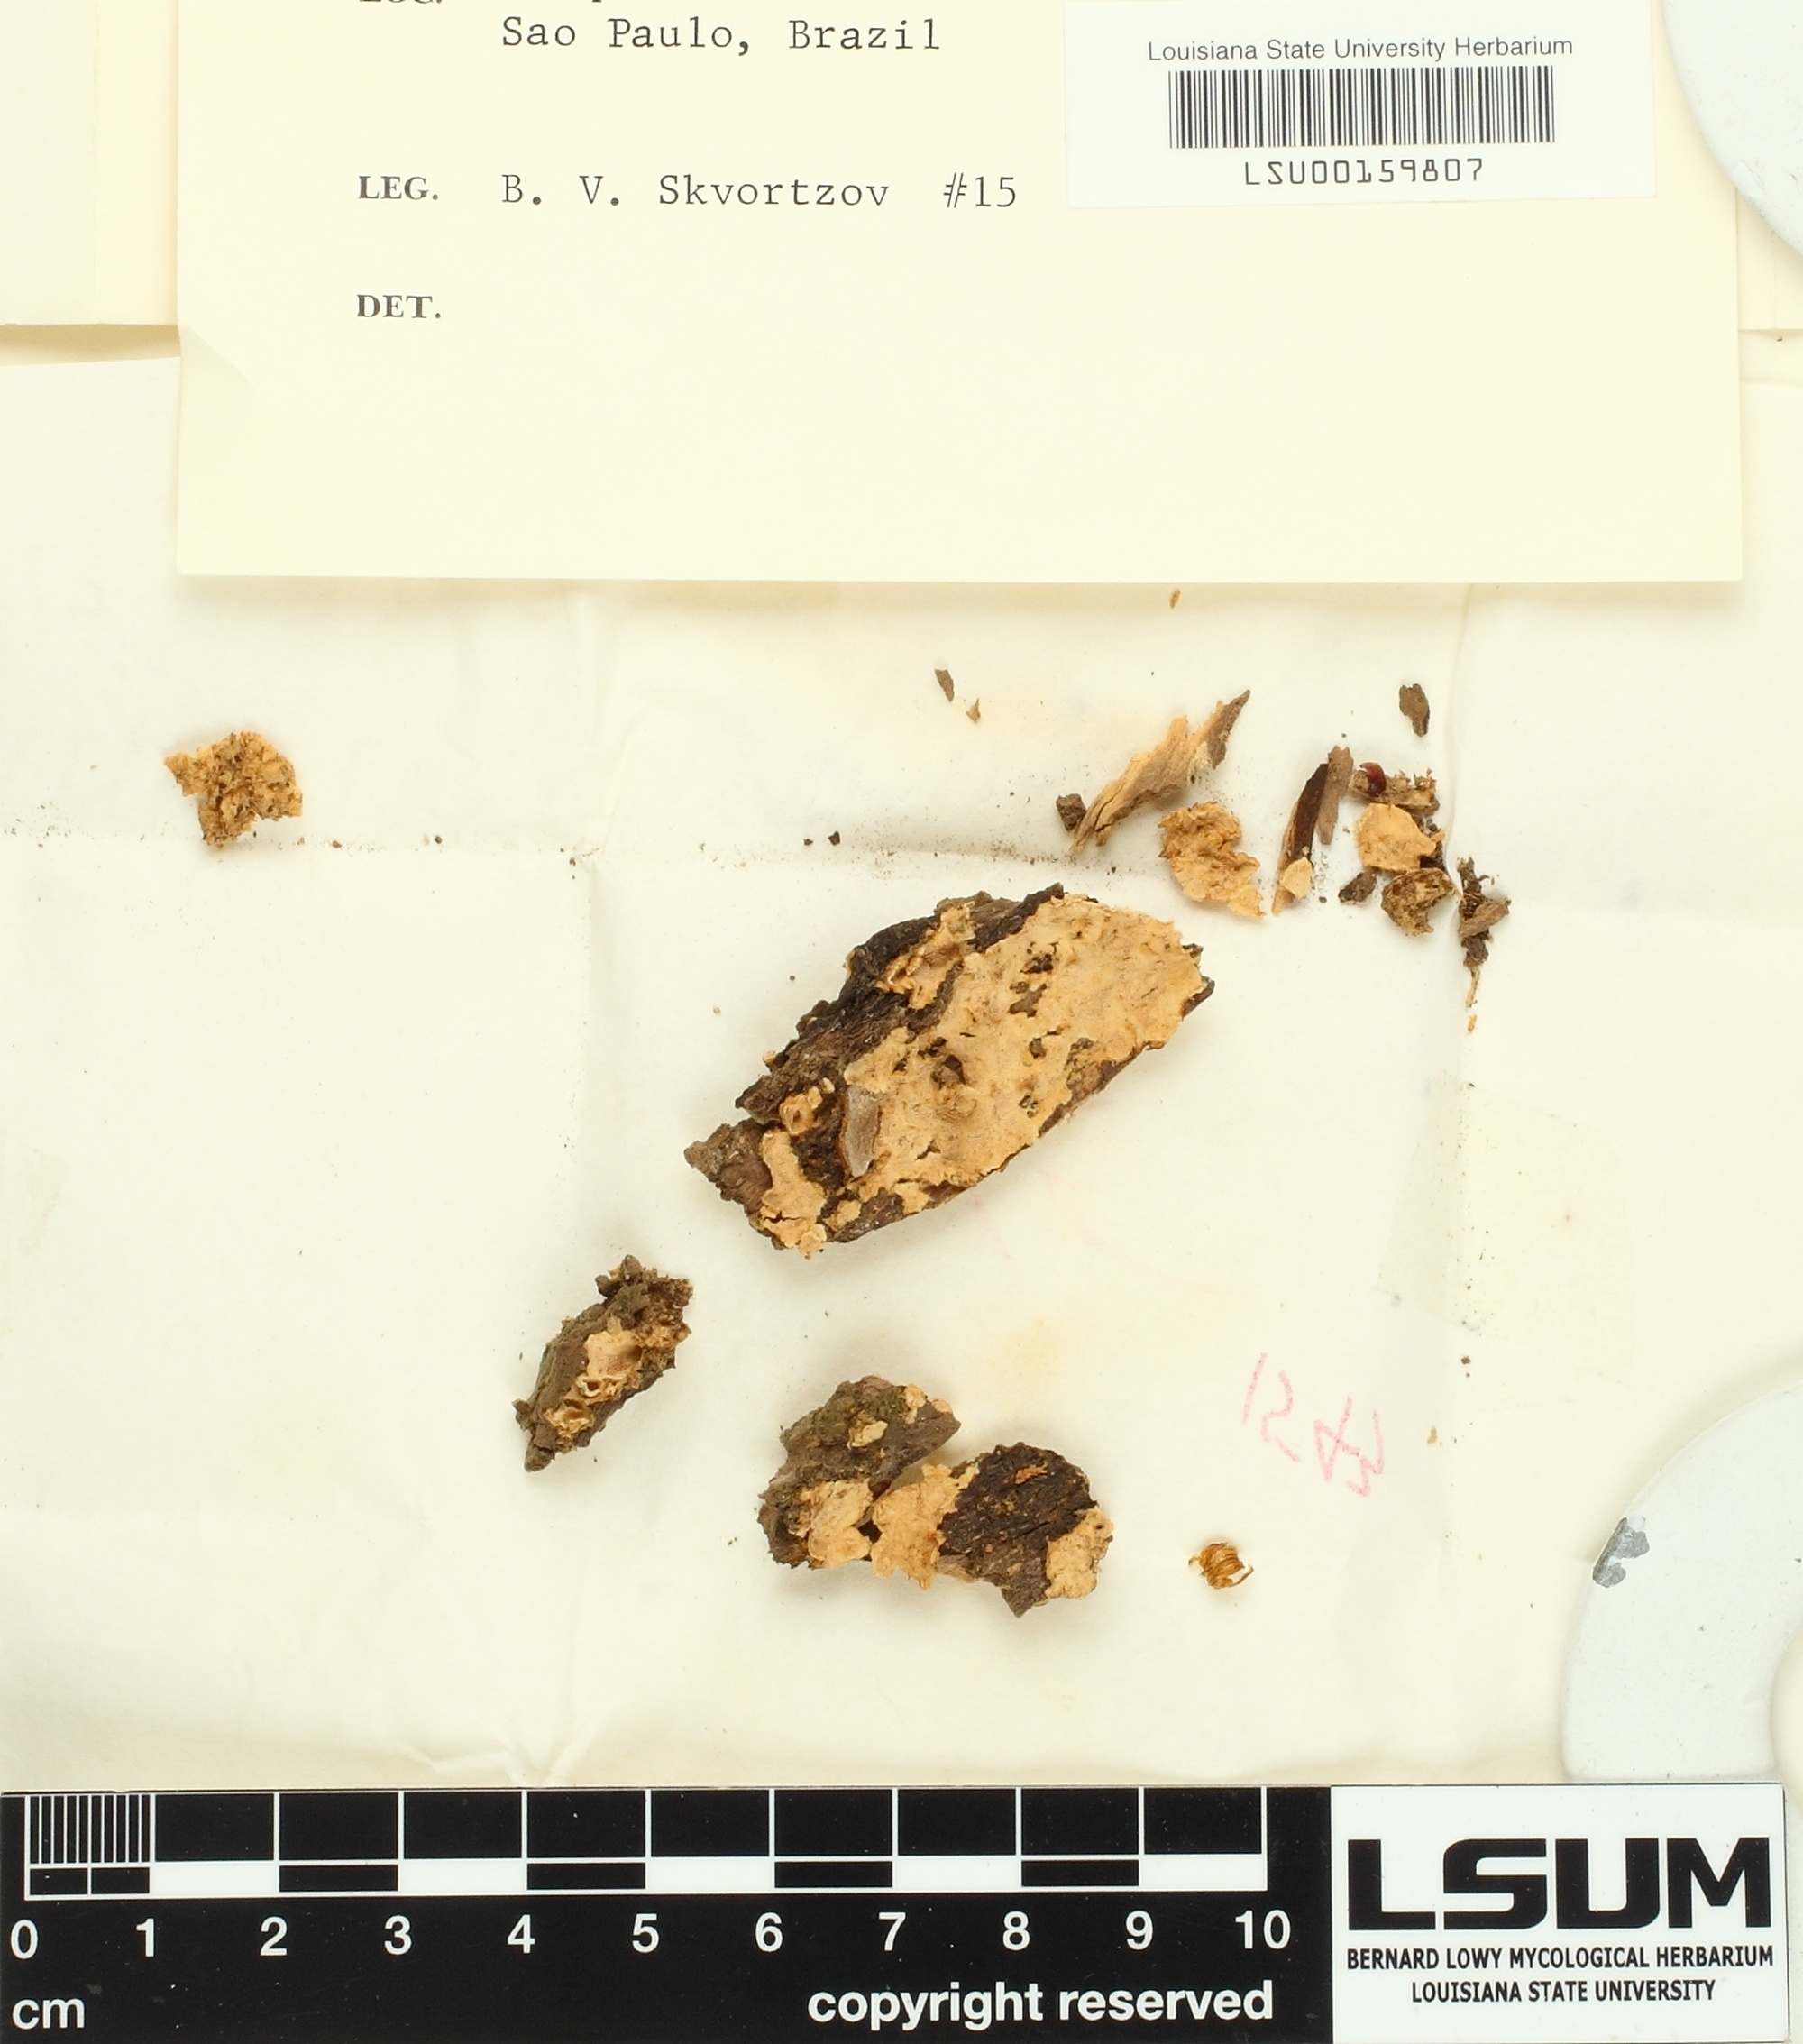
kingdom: Fungi
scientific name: Fungi
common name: Fungi
